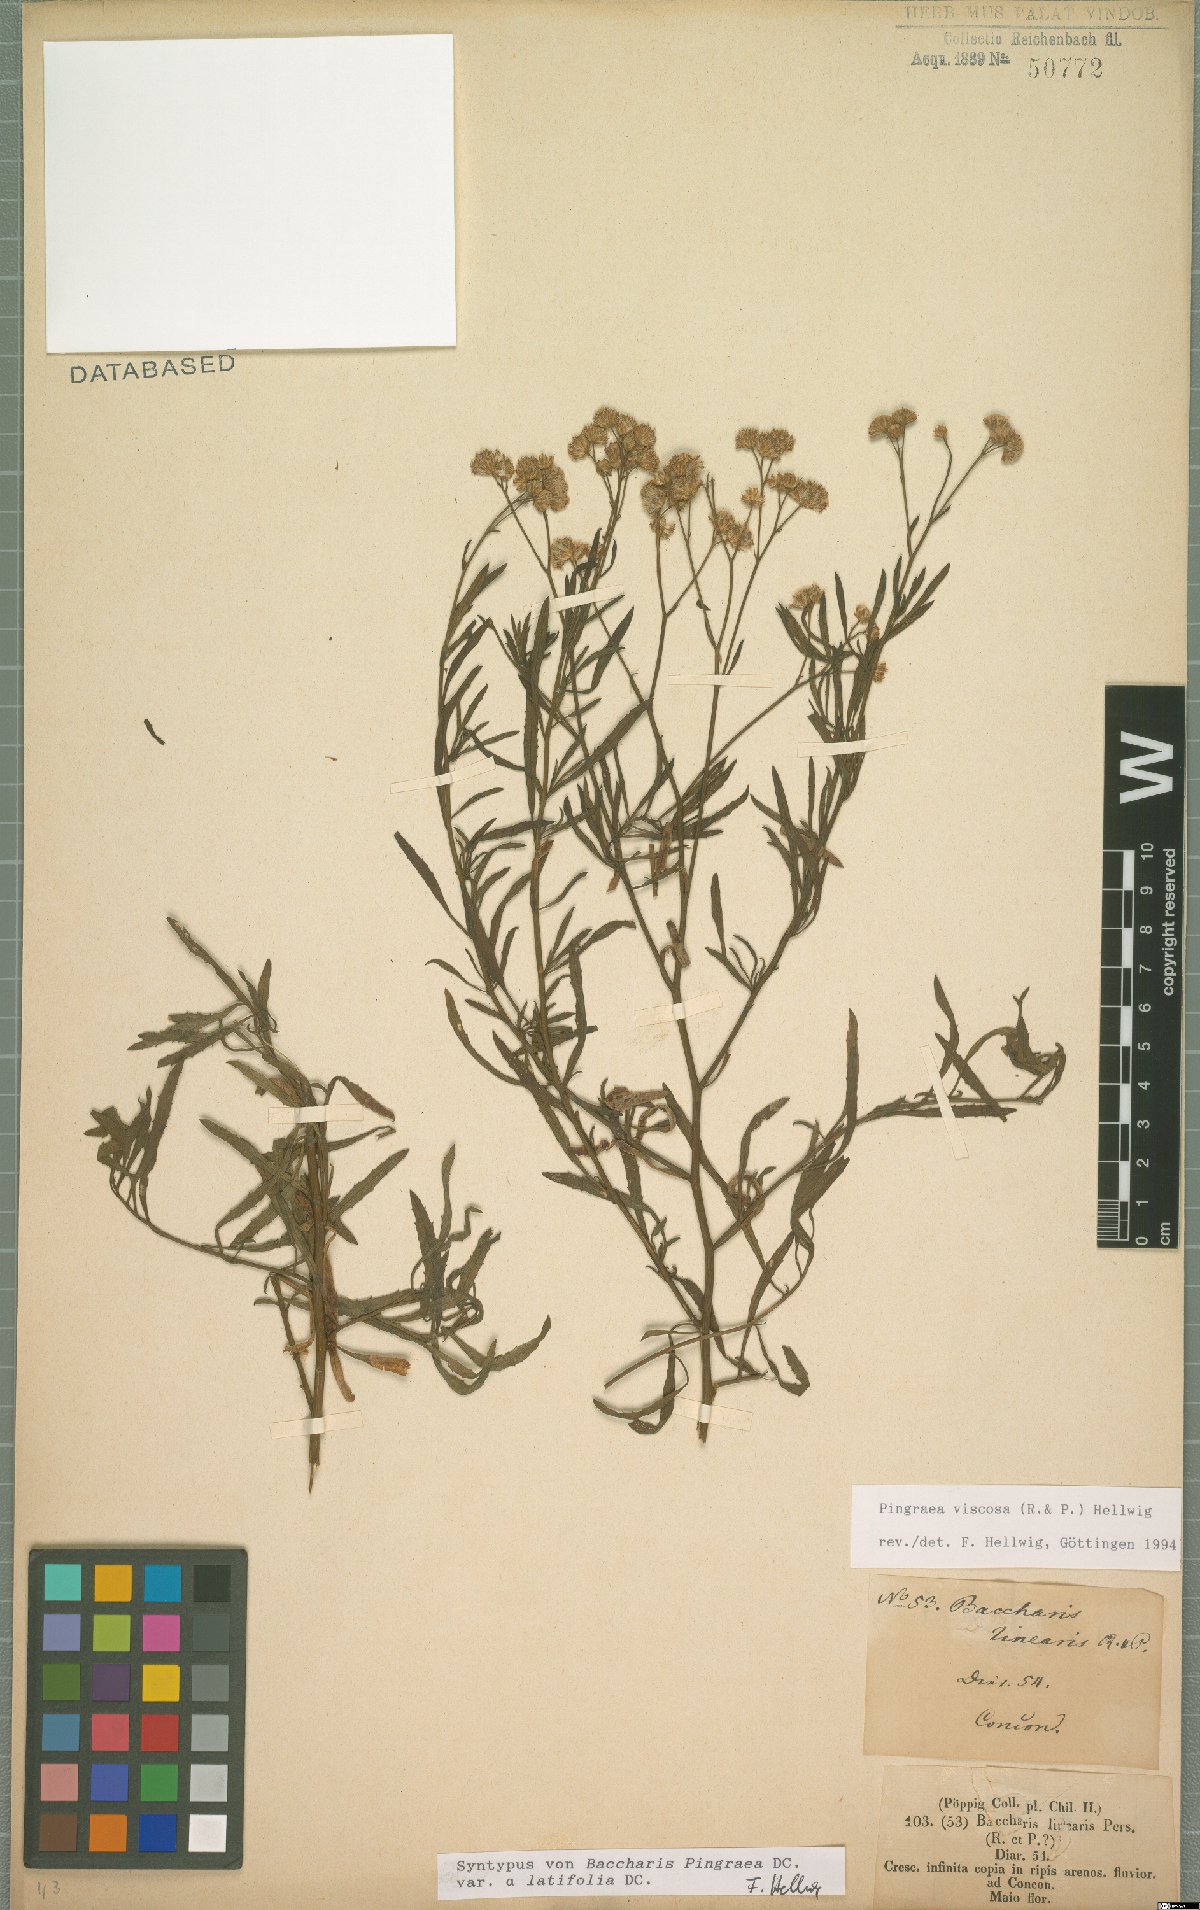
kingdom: Plantae
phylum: Tracheophyta
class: Magnoliopsida
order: Asterales
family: Asteraceae
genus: Baccharis
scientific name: Baccharis glutinosa
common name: Saltmarsh baccharis
